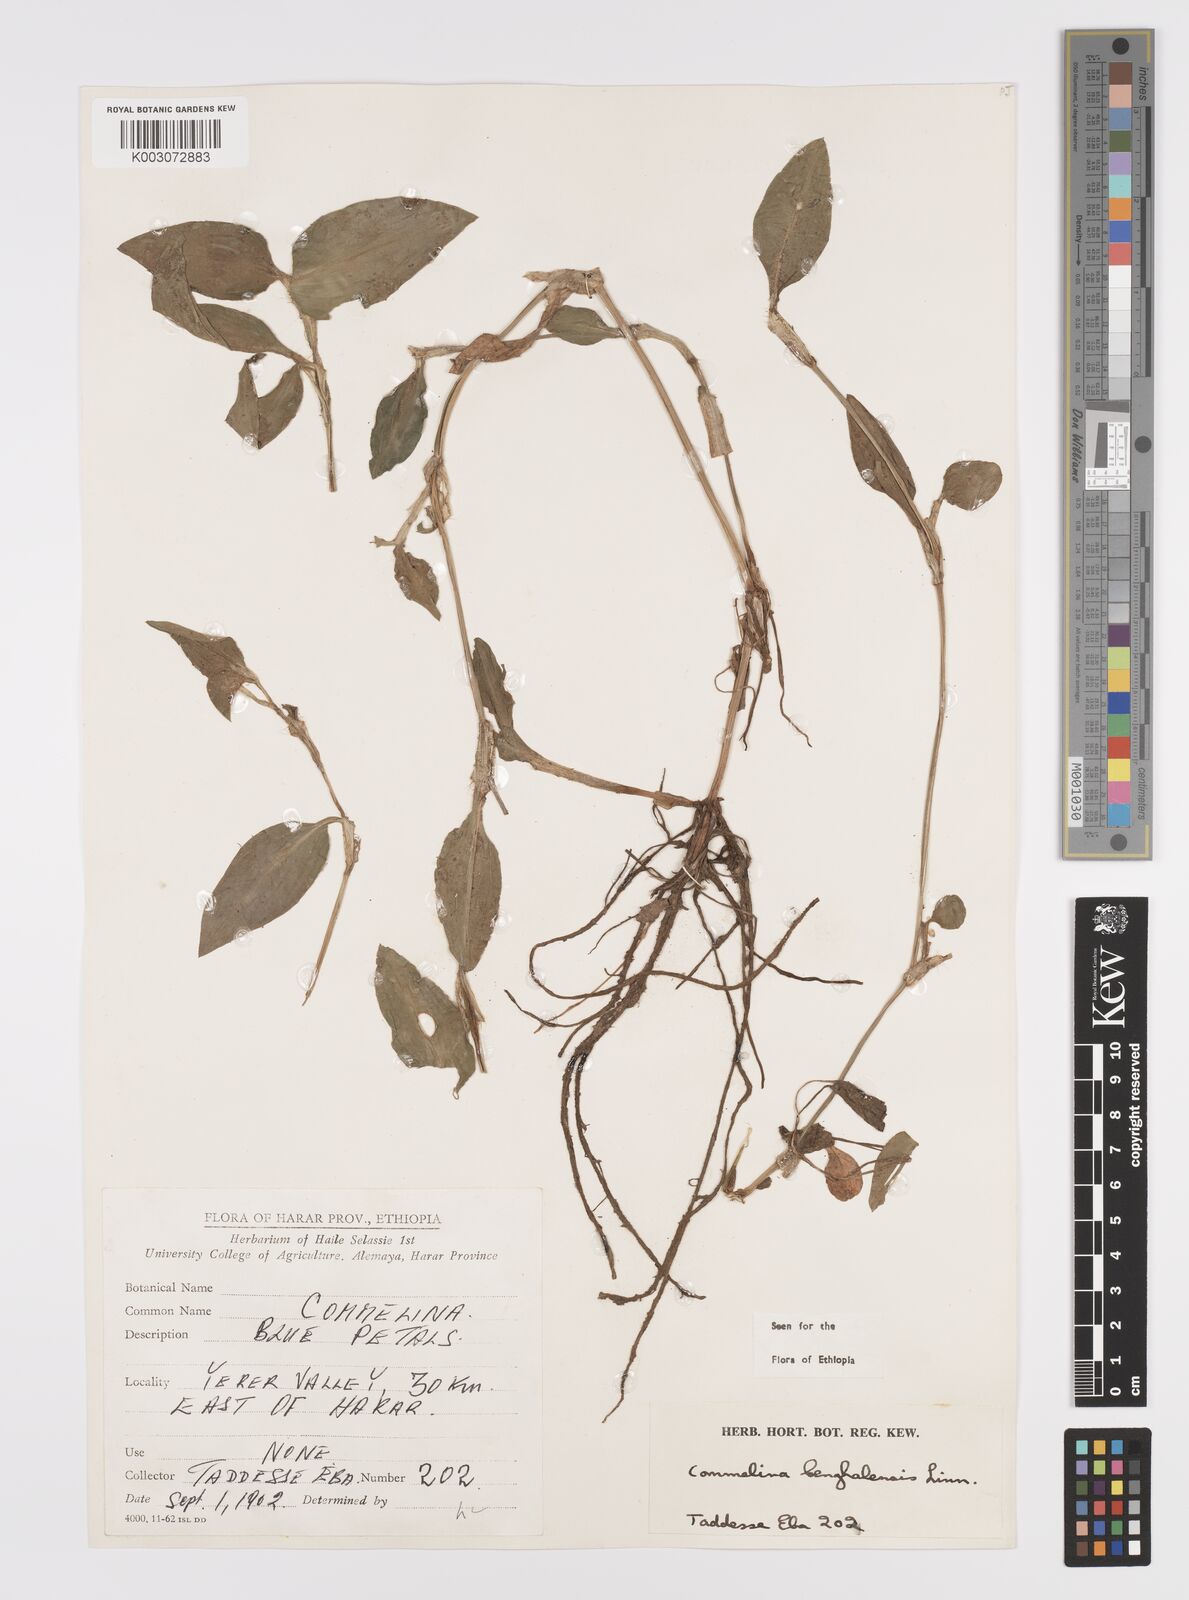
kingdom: Plantae
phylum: Tracheophyta
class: Liliopsida
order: Commelinales
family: Commelinaceae
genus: Commelina
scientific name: Commelina benghalensis
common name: Jio
